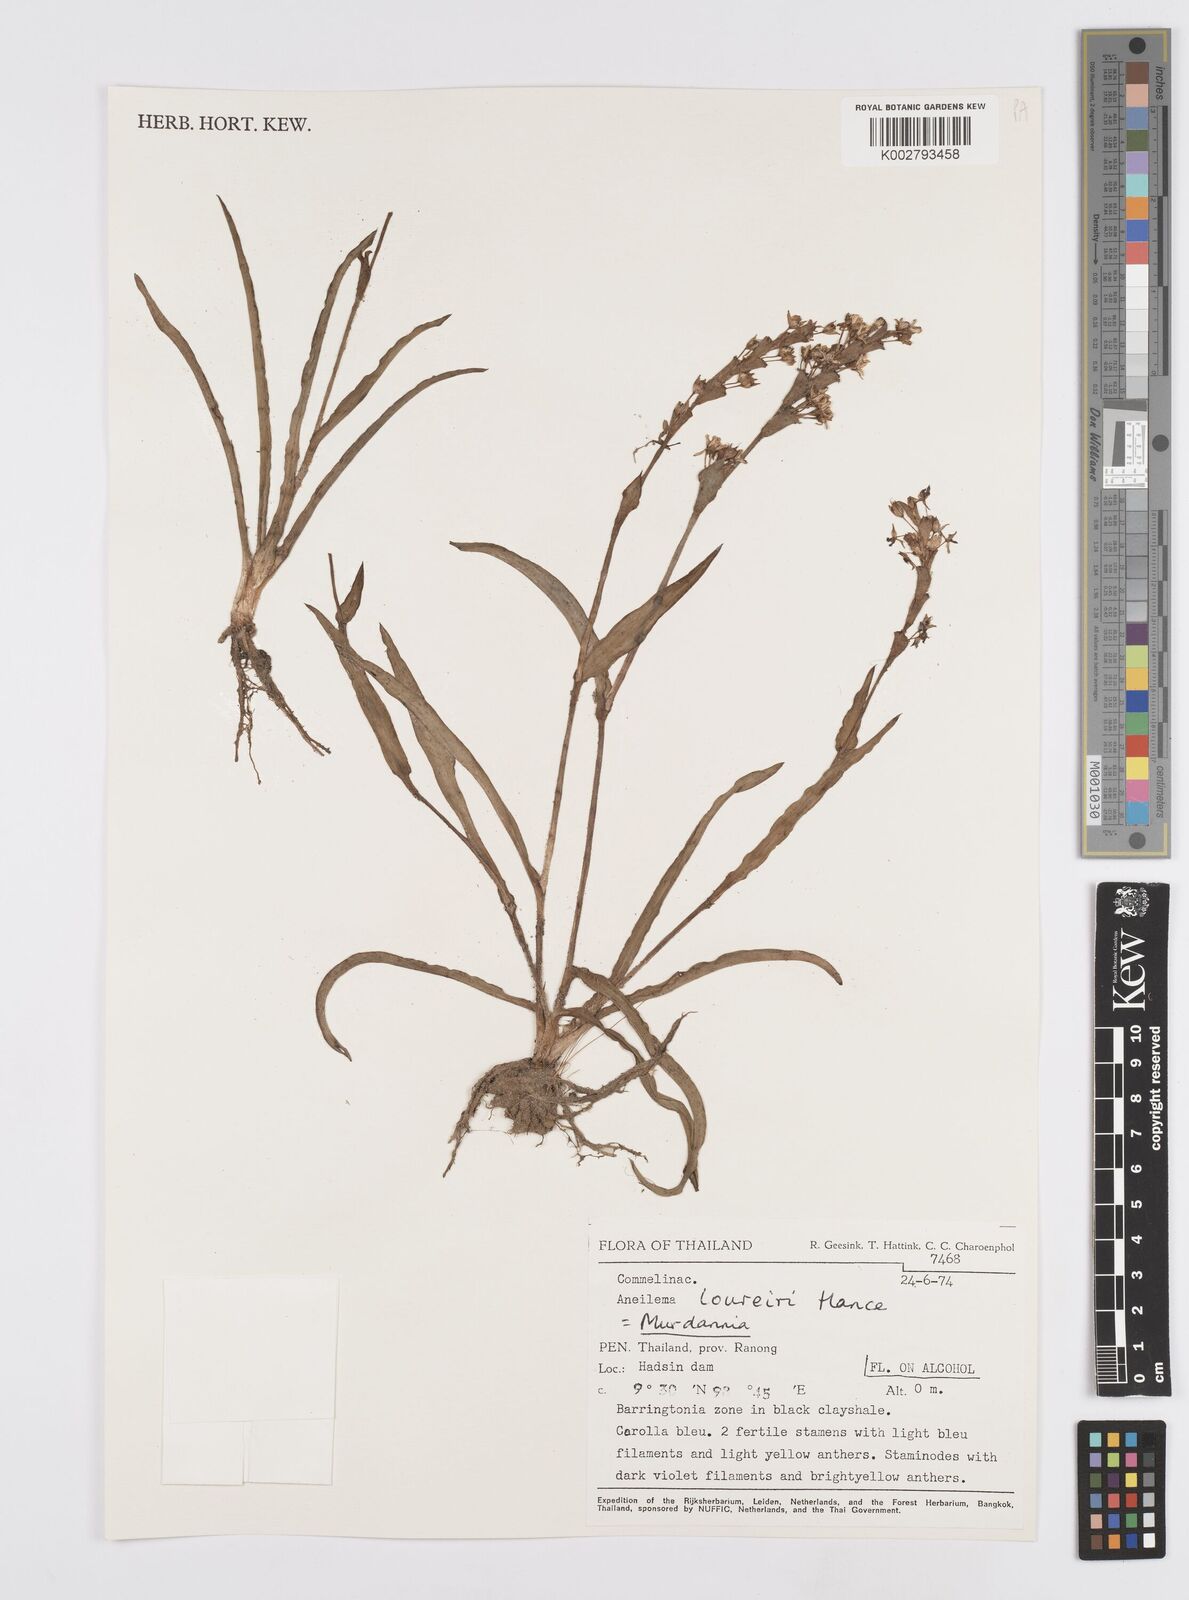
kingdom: Plantae
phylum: Tracheophyta
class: Liliopsida
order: Commelinales
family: Commelinaceae
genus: Murdannia
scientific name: Murdannia edulis
